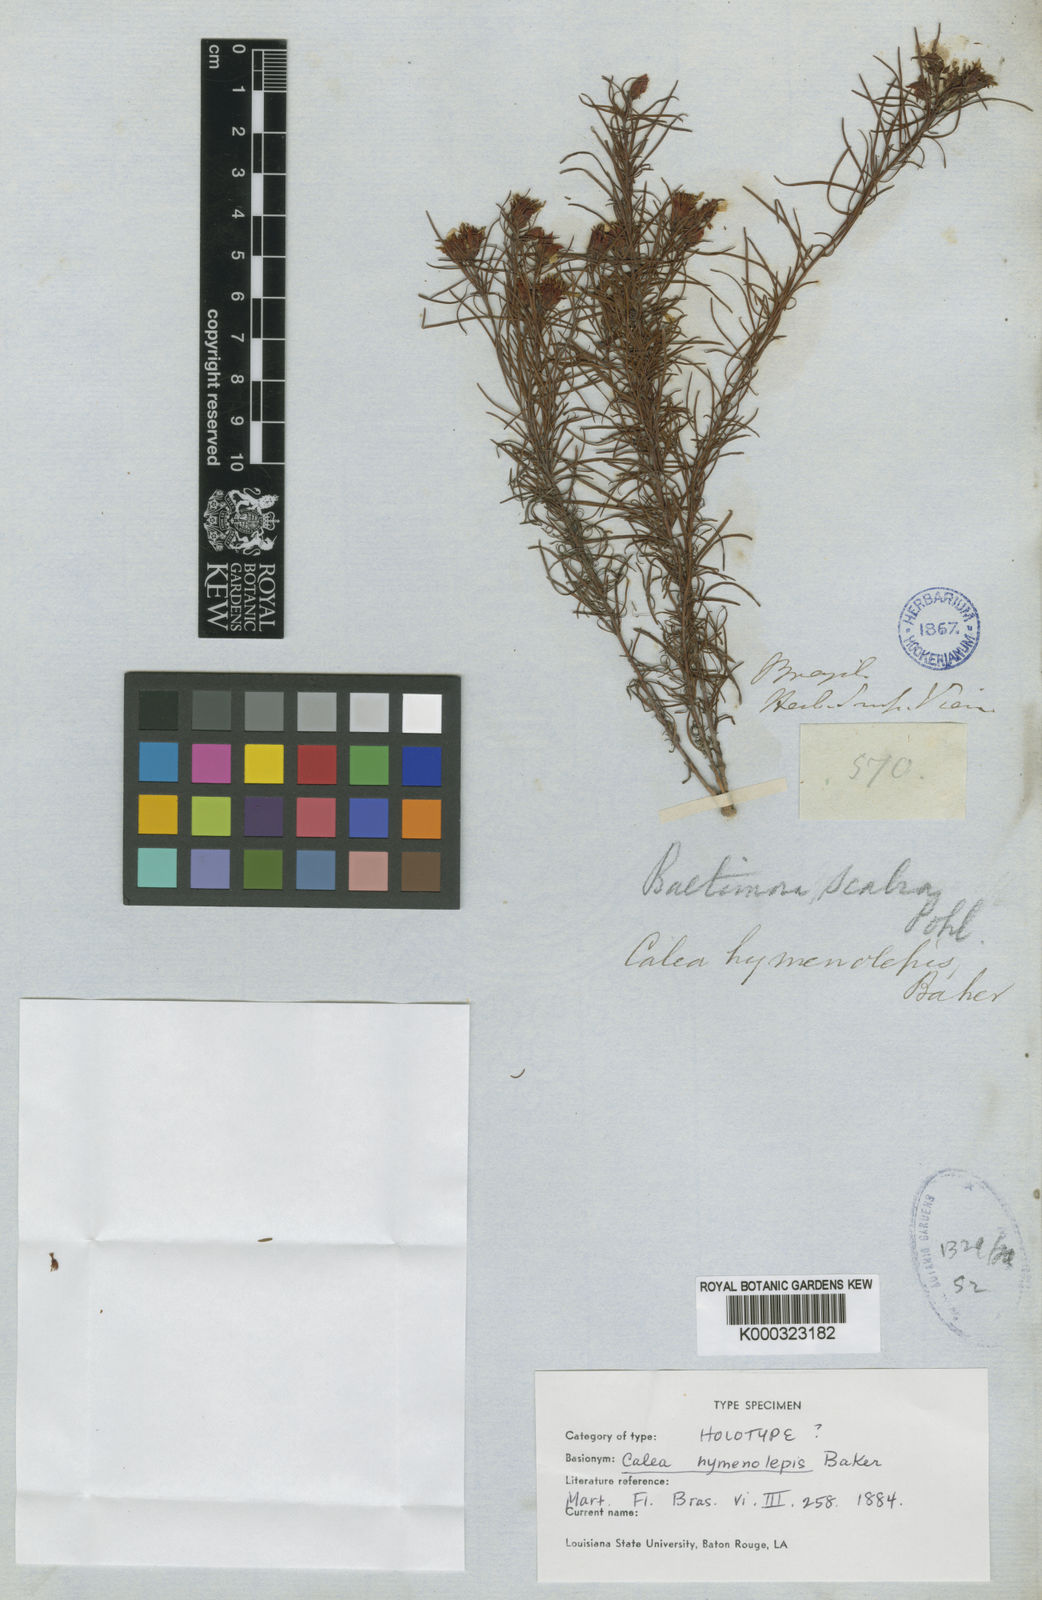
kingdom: Plantae
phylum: Tracheophyta
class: Magnoliopsida
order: Asterales
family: Asteraceae
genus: Calea
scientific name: Calea hymenolepis
